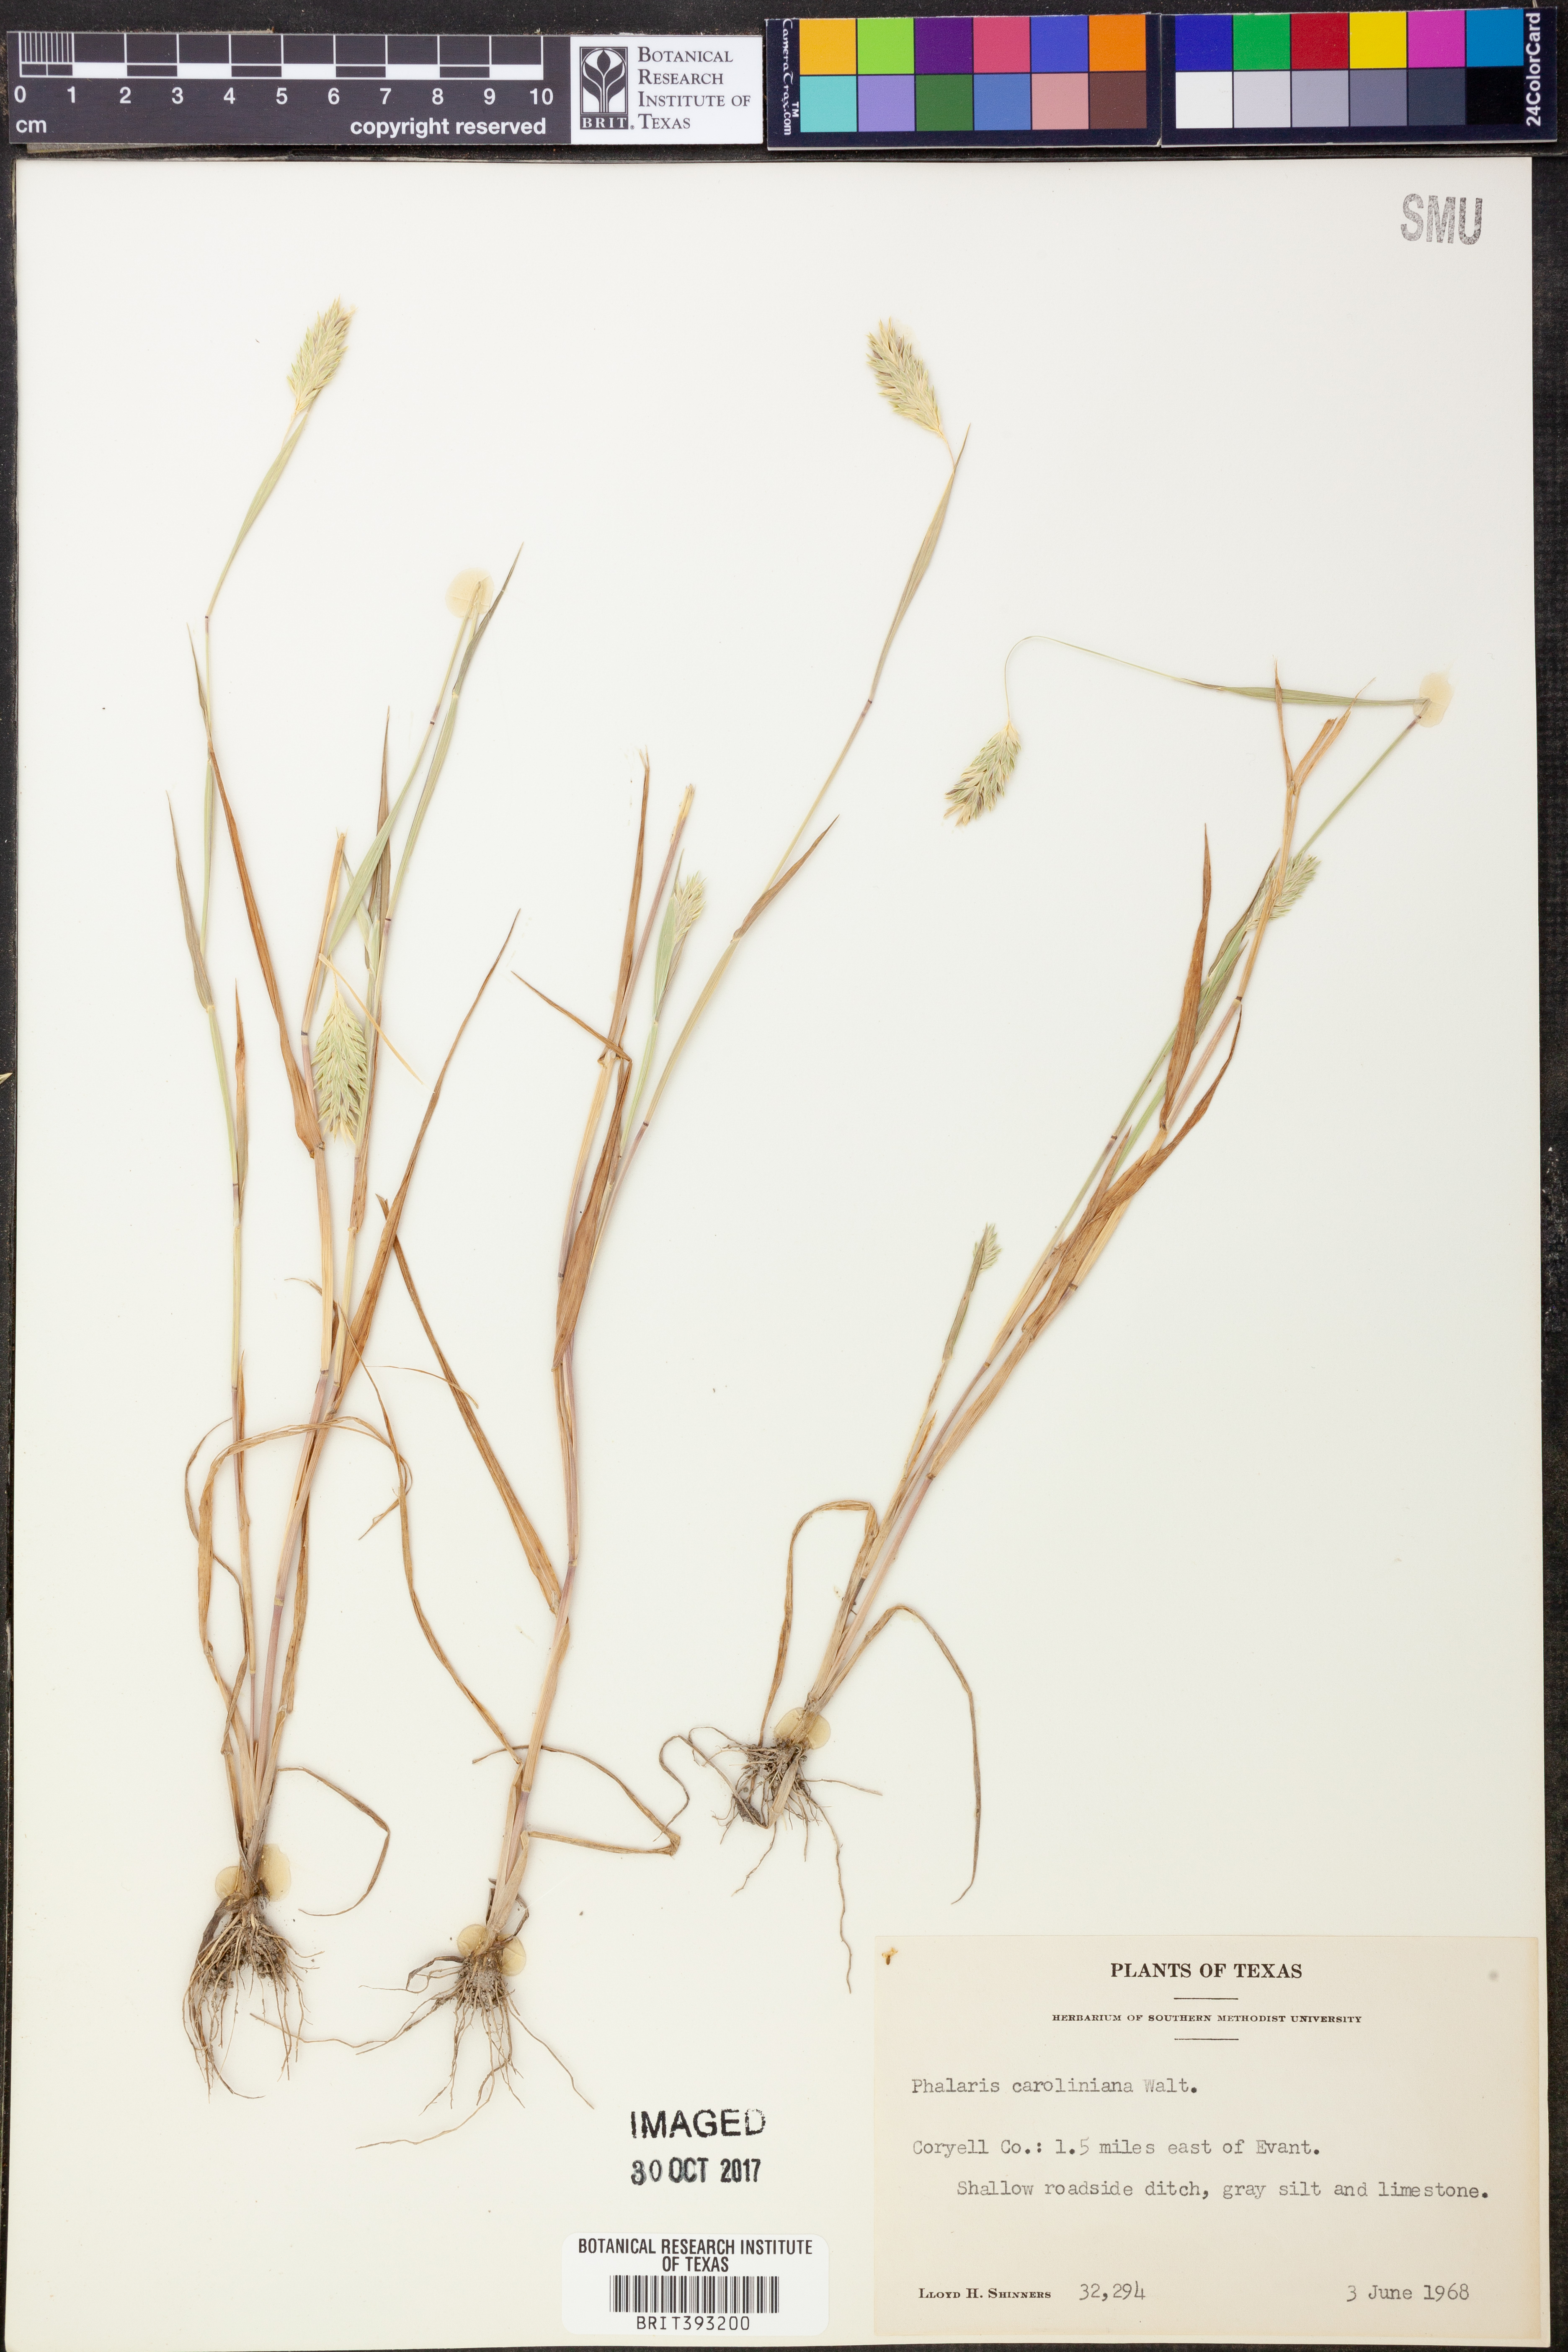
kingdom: Plantae
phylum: Tracheophyta
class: Liliopsida
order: Poales
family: Poaceae
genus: Phalaris
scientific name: Phalaris caroliniana
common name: May grass
